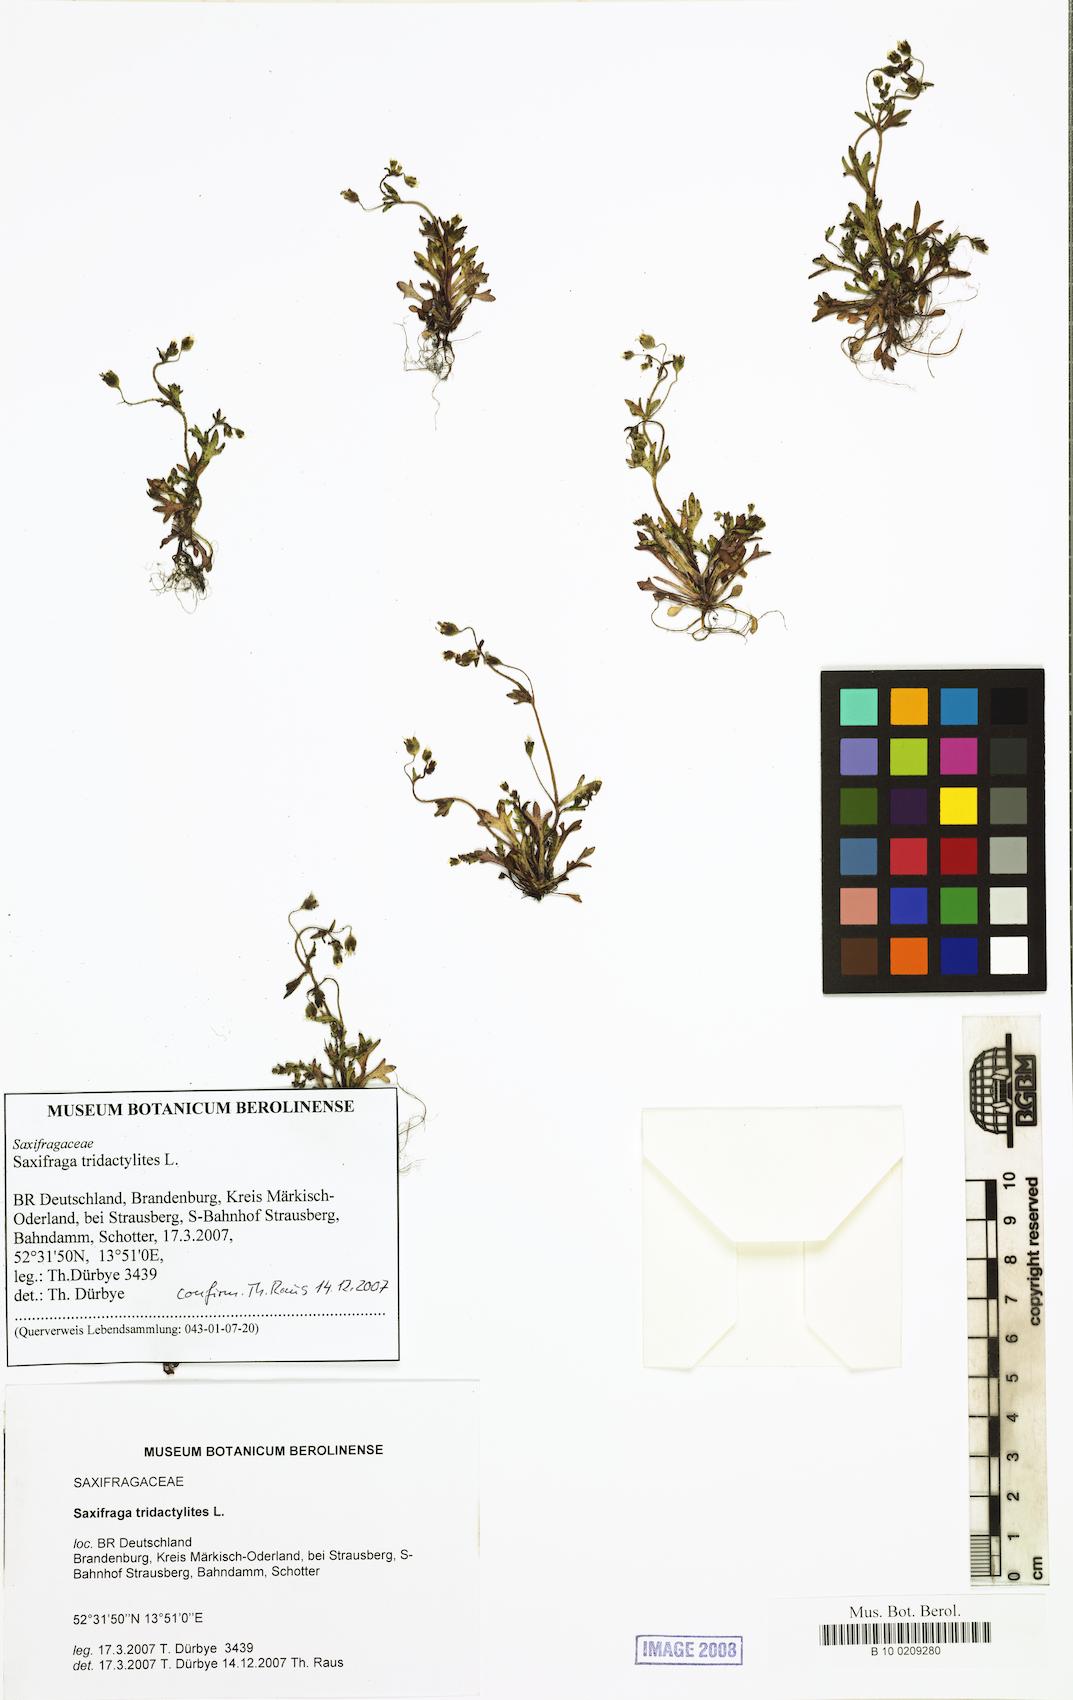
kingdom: Plantae
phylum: Tracheophyta
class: Magnoliopsida
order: Saxifragales
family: Saxifragaceae
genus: Saxifraga
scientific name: Saxifraga tridactylites
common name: Rue-leaved saxifrage
